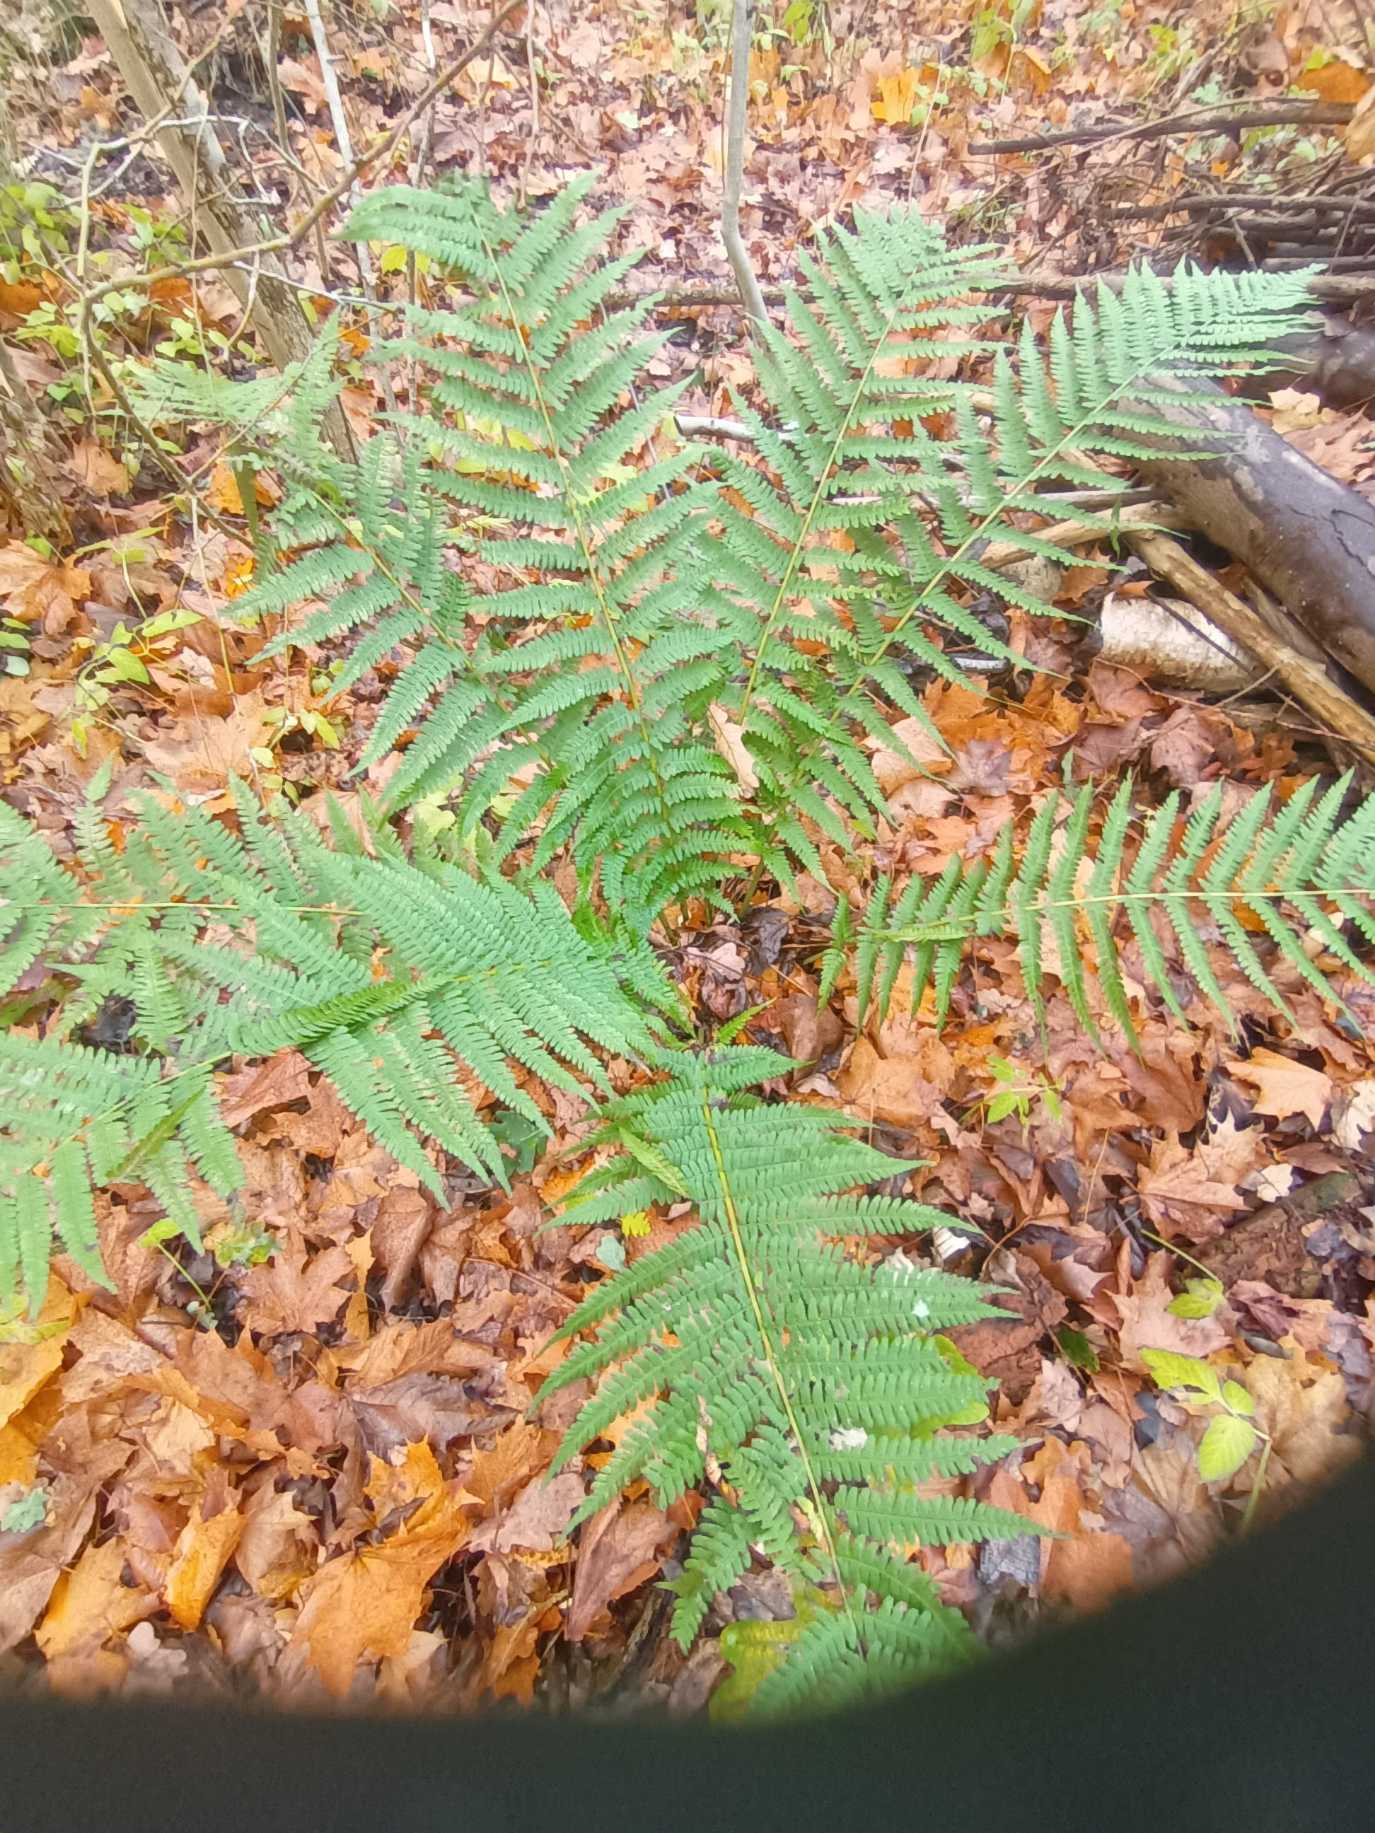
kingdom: Plantae
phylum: Tracheophyta
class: Polypodiopsida
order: Polypodiales
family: Dryopteridaceae
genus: Dryopteris
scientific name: Dryopteris filix-mas
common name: Almindelig mangeløv
